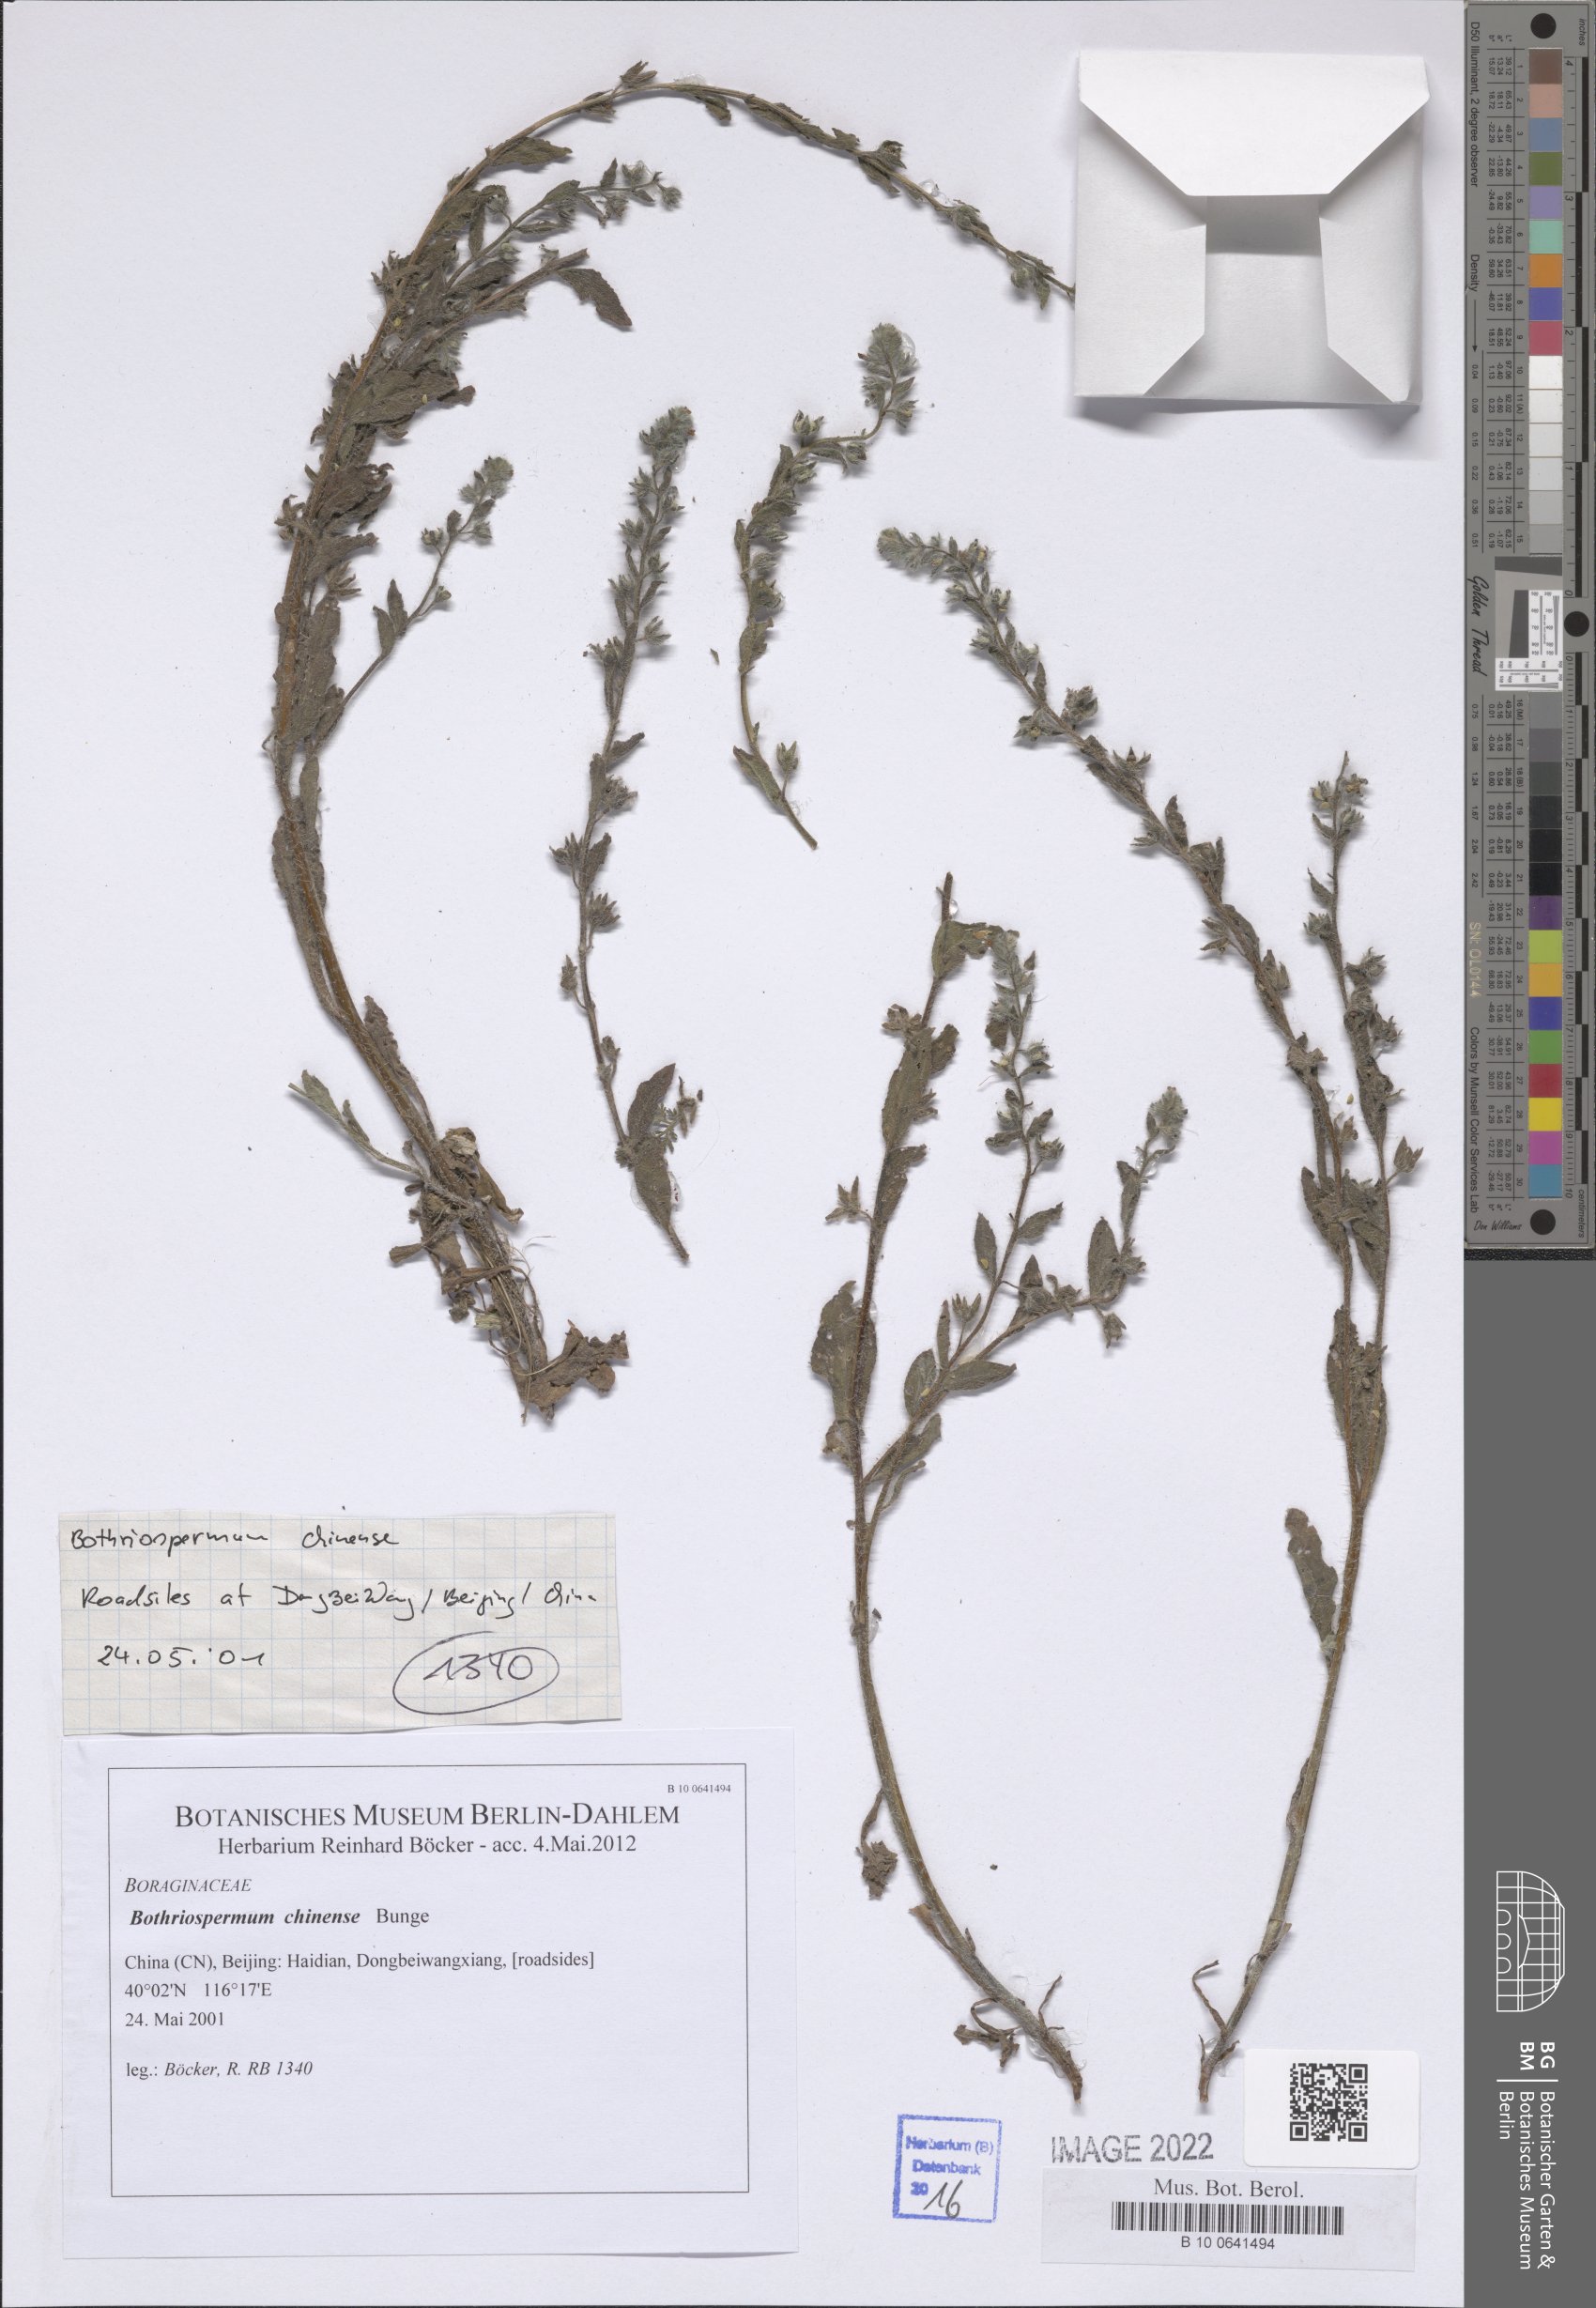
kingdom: Plantae
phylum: Tracheophyta
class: Magnoliopsida
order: Boraginales
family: Boraginaceae
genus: Bothriospermum
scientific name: Bothriospermum chinense
